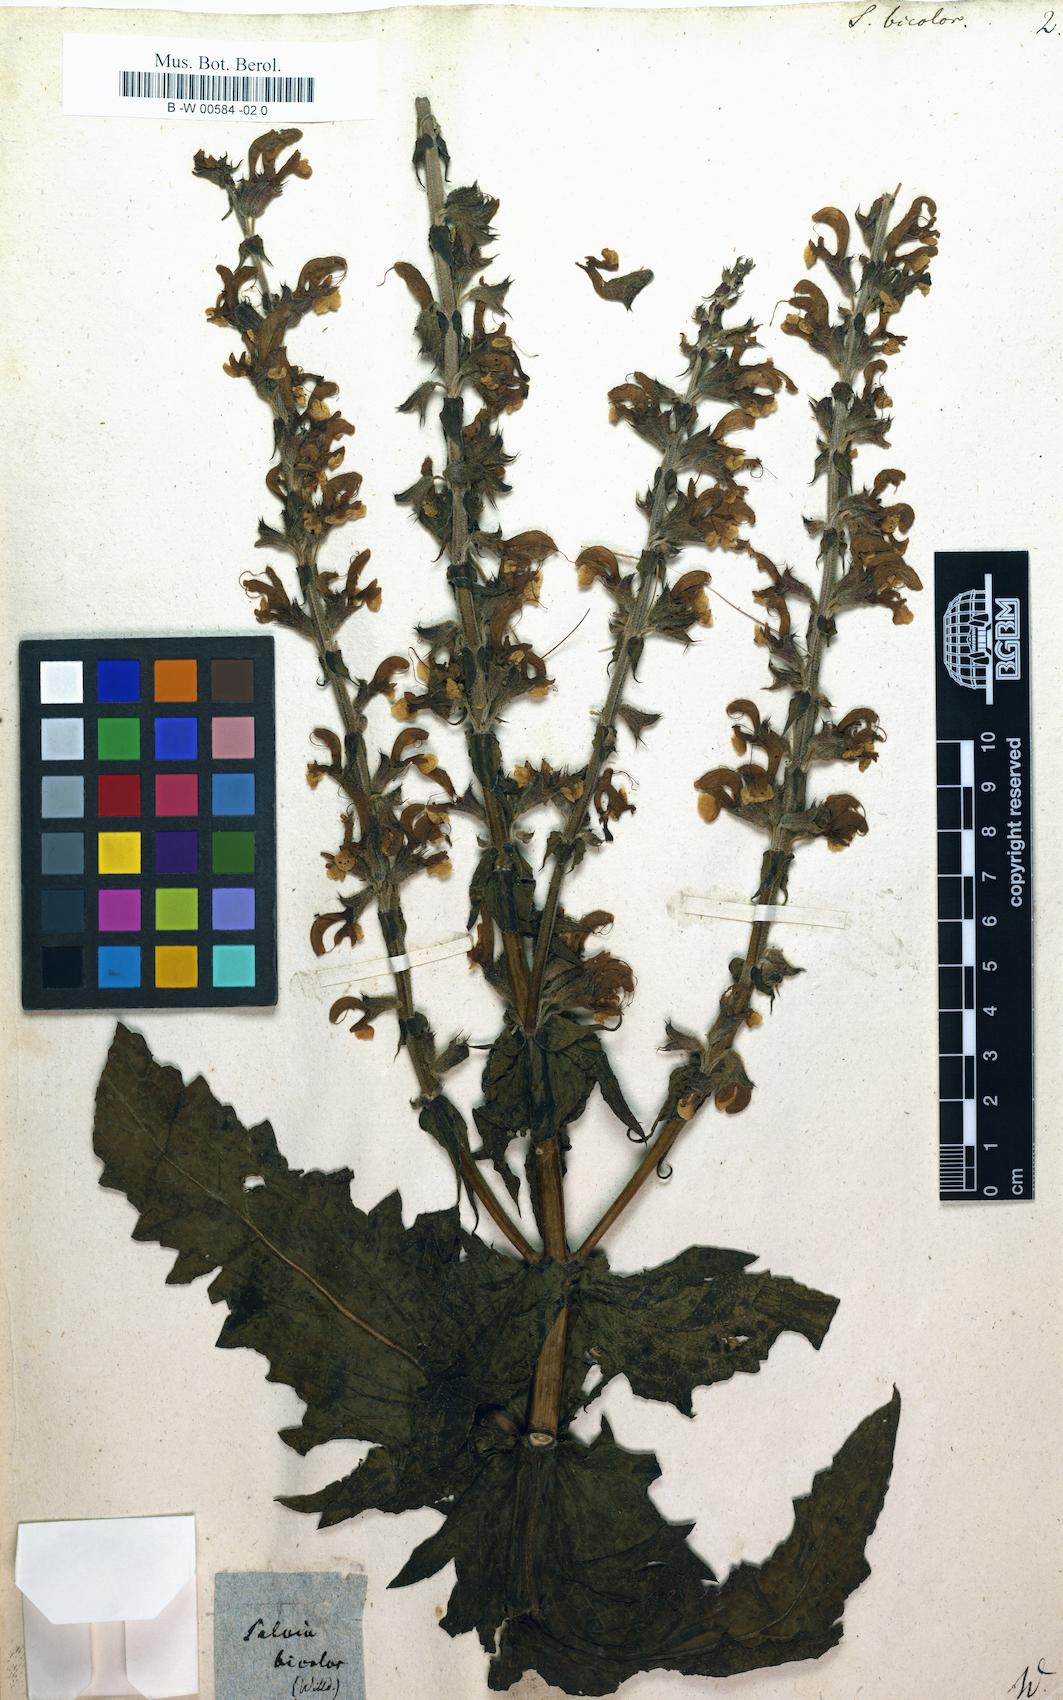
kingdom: Plantae
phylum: Tracheophyta
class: Magnoliopsida
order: Lamiales
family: Lamiaceae
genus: Salvia
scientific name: Salvia barrelieri
